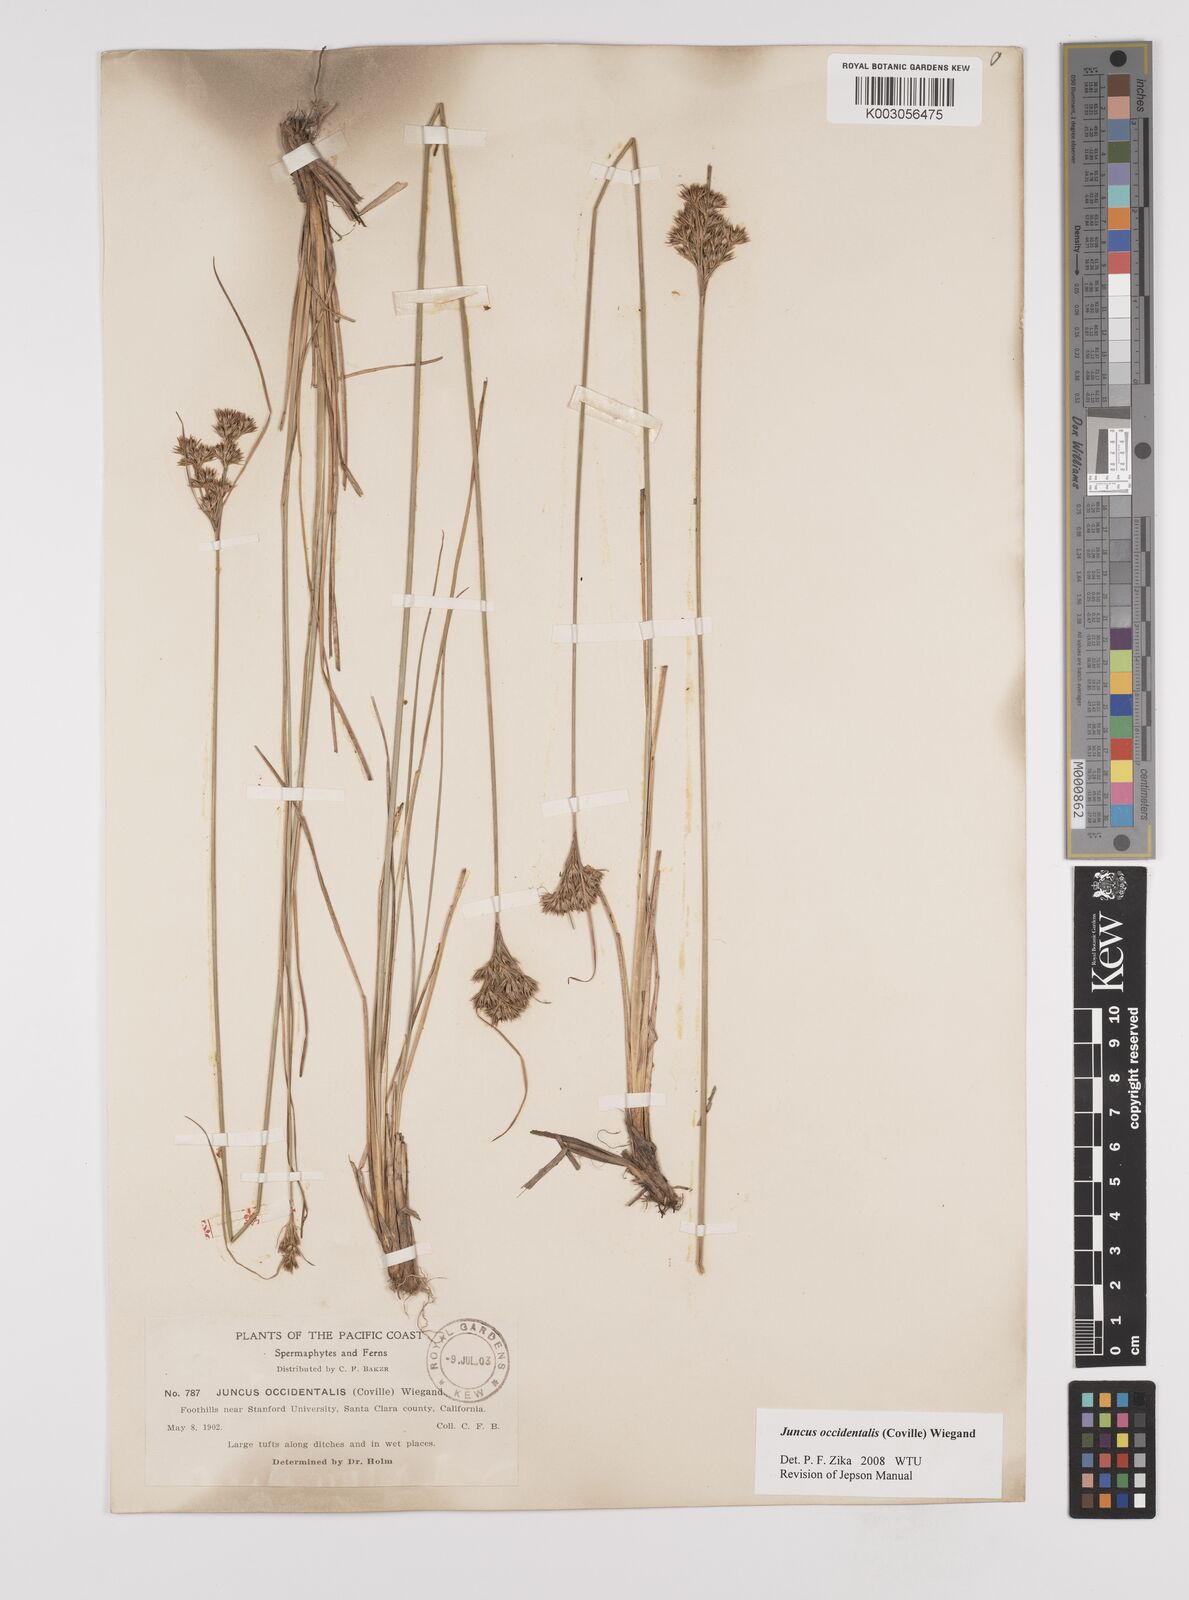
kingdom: Plantae
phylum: Tracheophyta
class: Liliopsida
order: Poales
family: Juncaceae
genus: Juncus
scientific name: Juncus occidentalis
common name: Western rush
